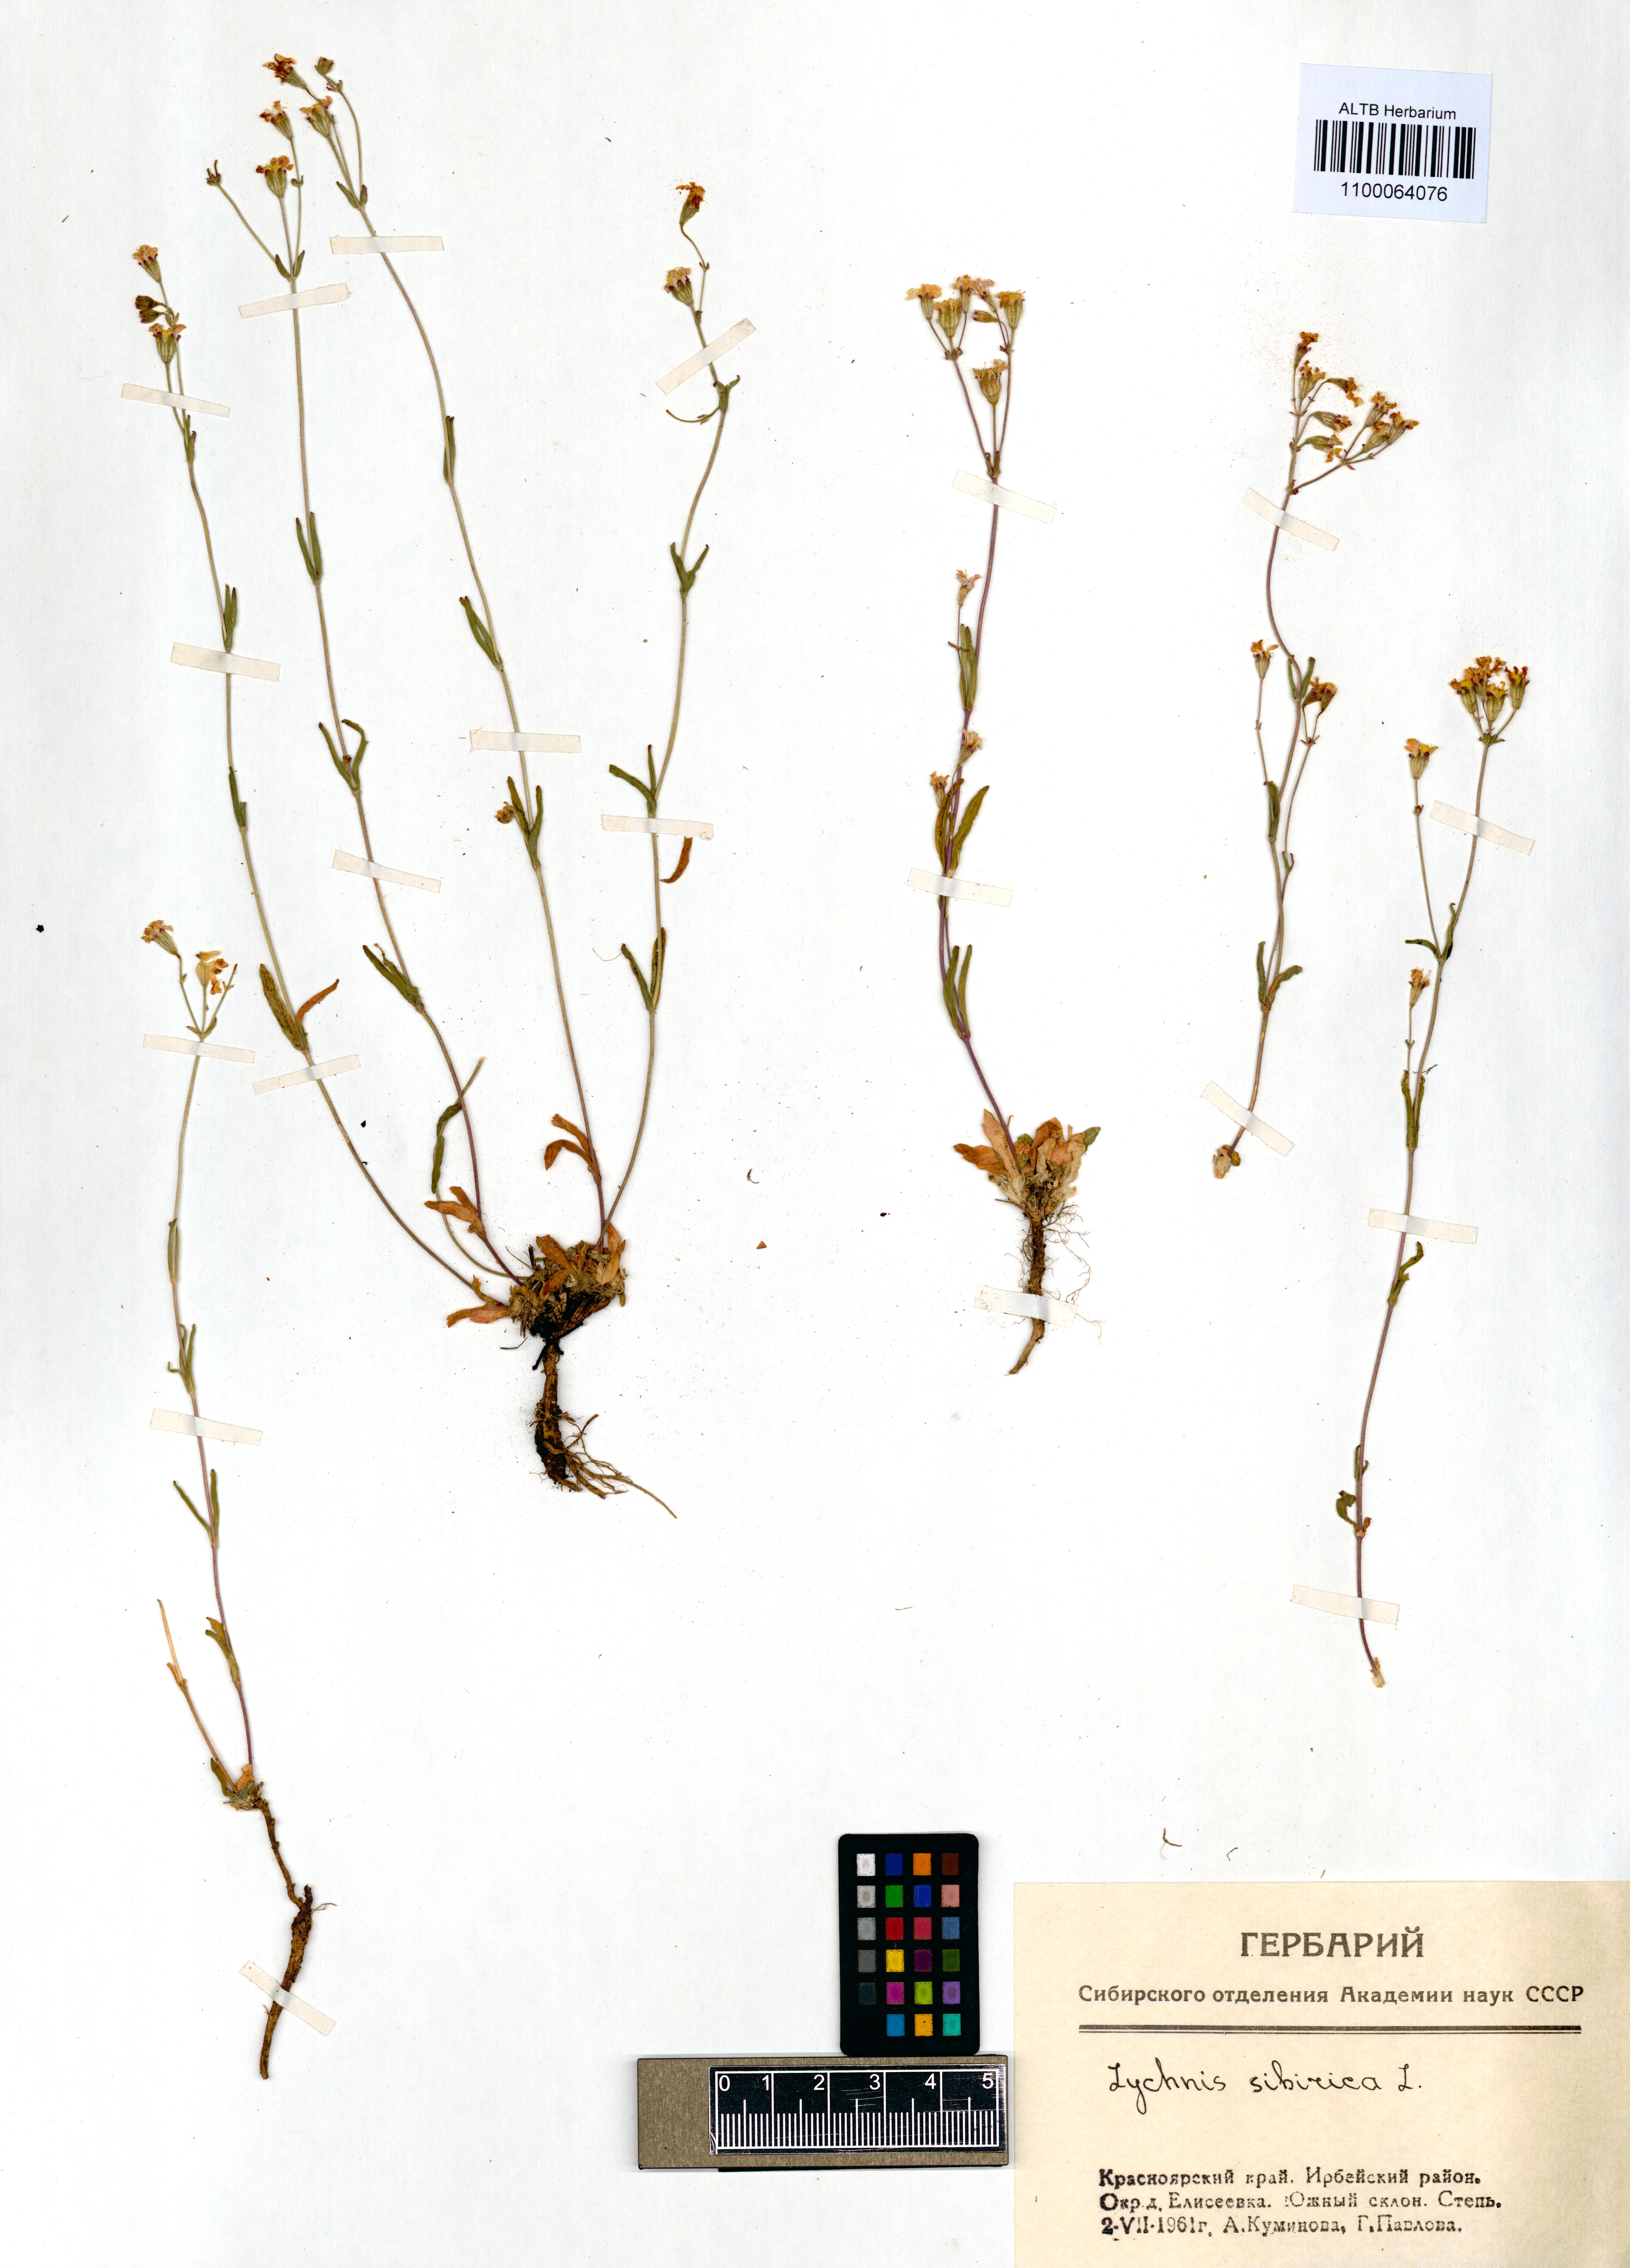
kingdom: Plantae
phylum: Tracheophyta
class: Magnoliopsida
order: Caryophyllales
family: Caryophyllaceae
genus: Silene
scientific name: Silene orientalimongolica
